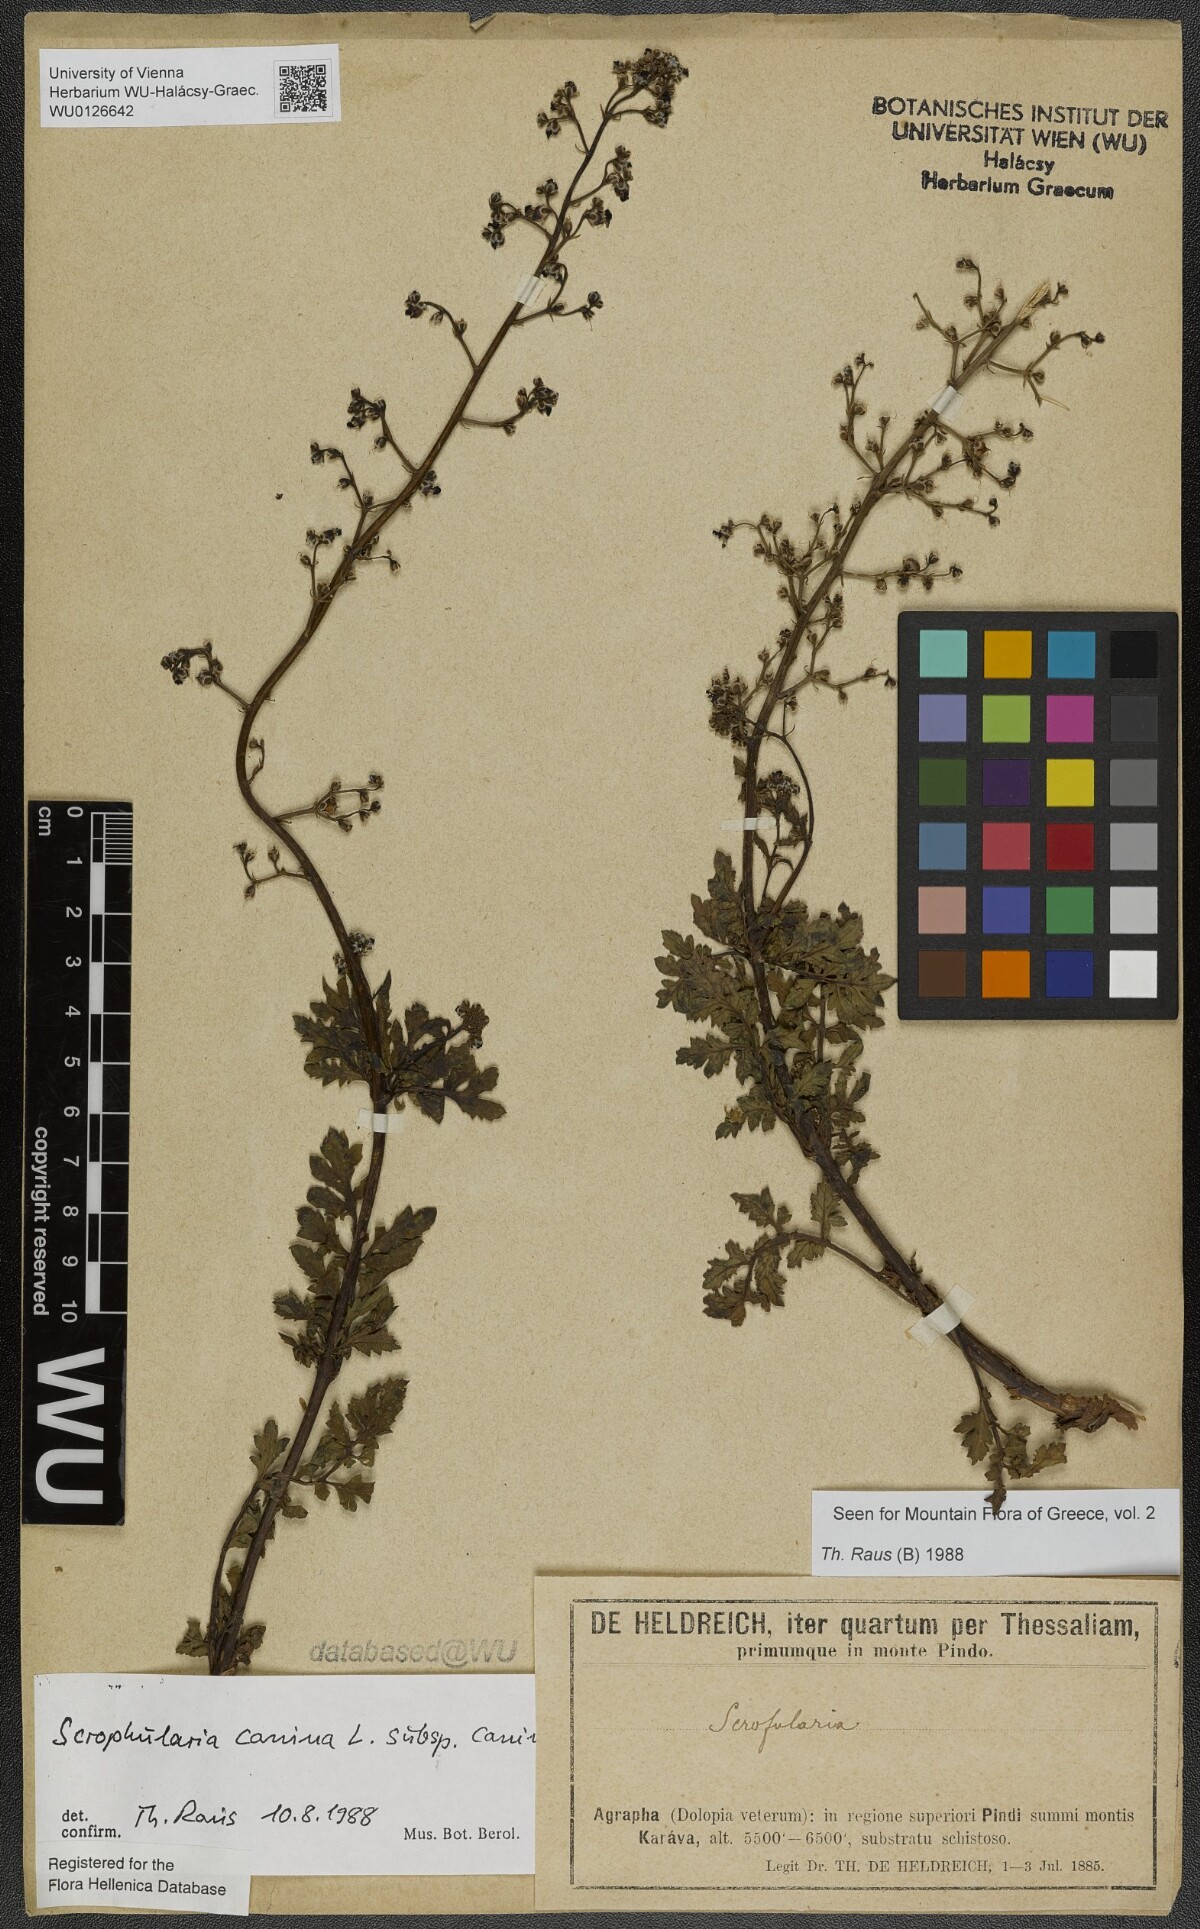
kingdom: Plantae
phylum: Tracheophyta
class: Magnoliopsida
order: Lamiales
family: Scrophulariaceae
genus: Scrophularia
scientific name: Scrophularia canina
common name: French figwort
